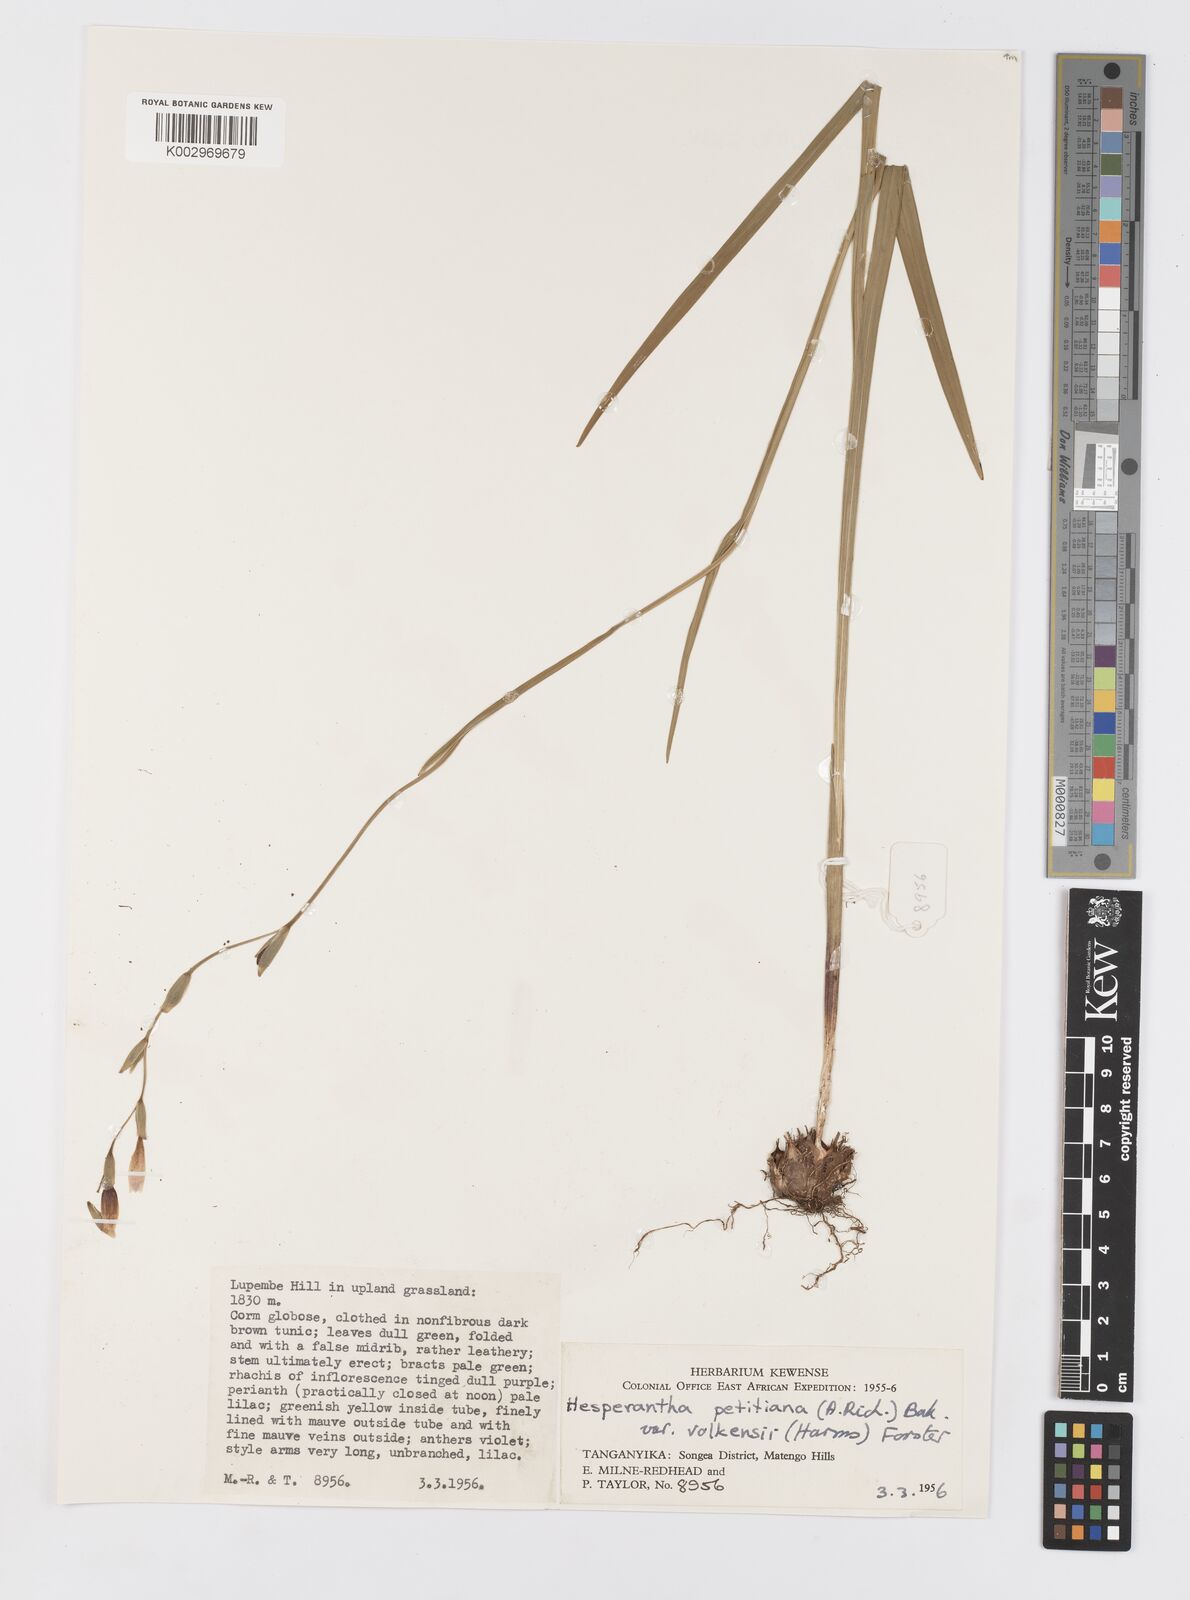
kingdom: Plantae
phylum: Tracheophyta
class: Liliopsida
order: Asparagales
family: Iridaceae
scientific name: Iridaceae
